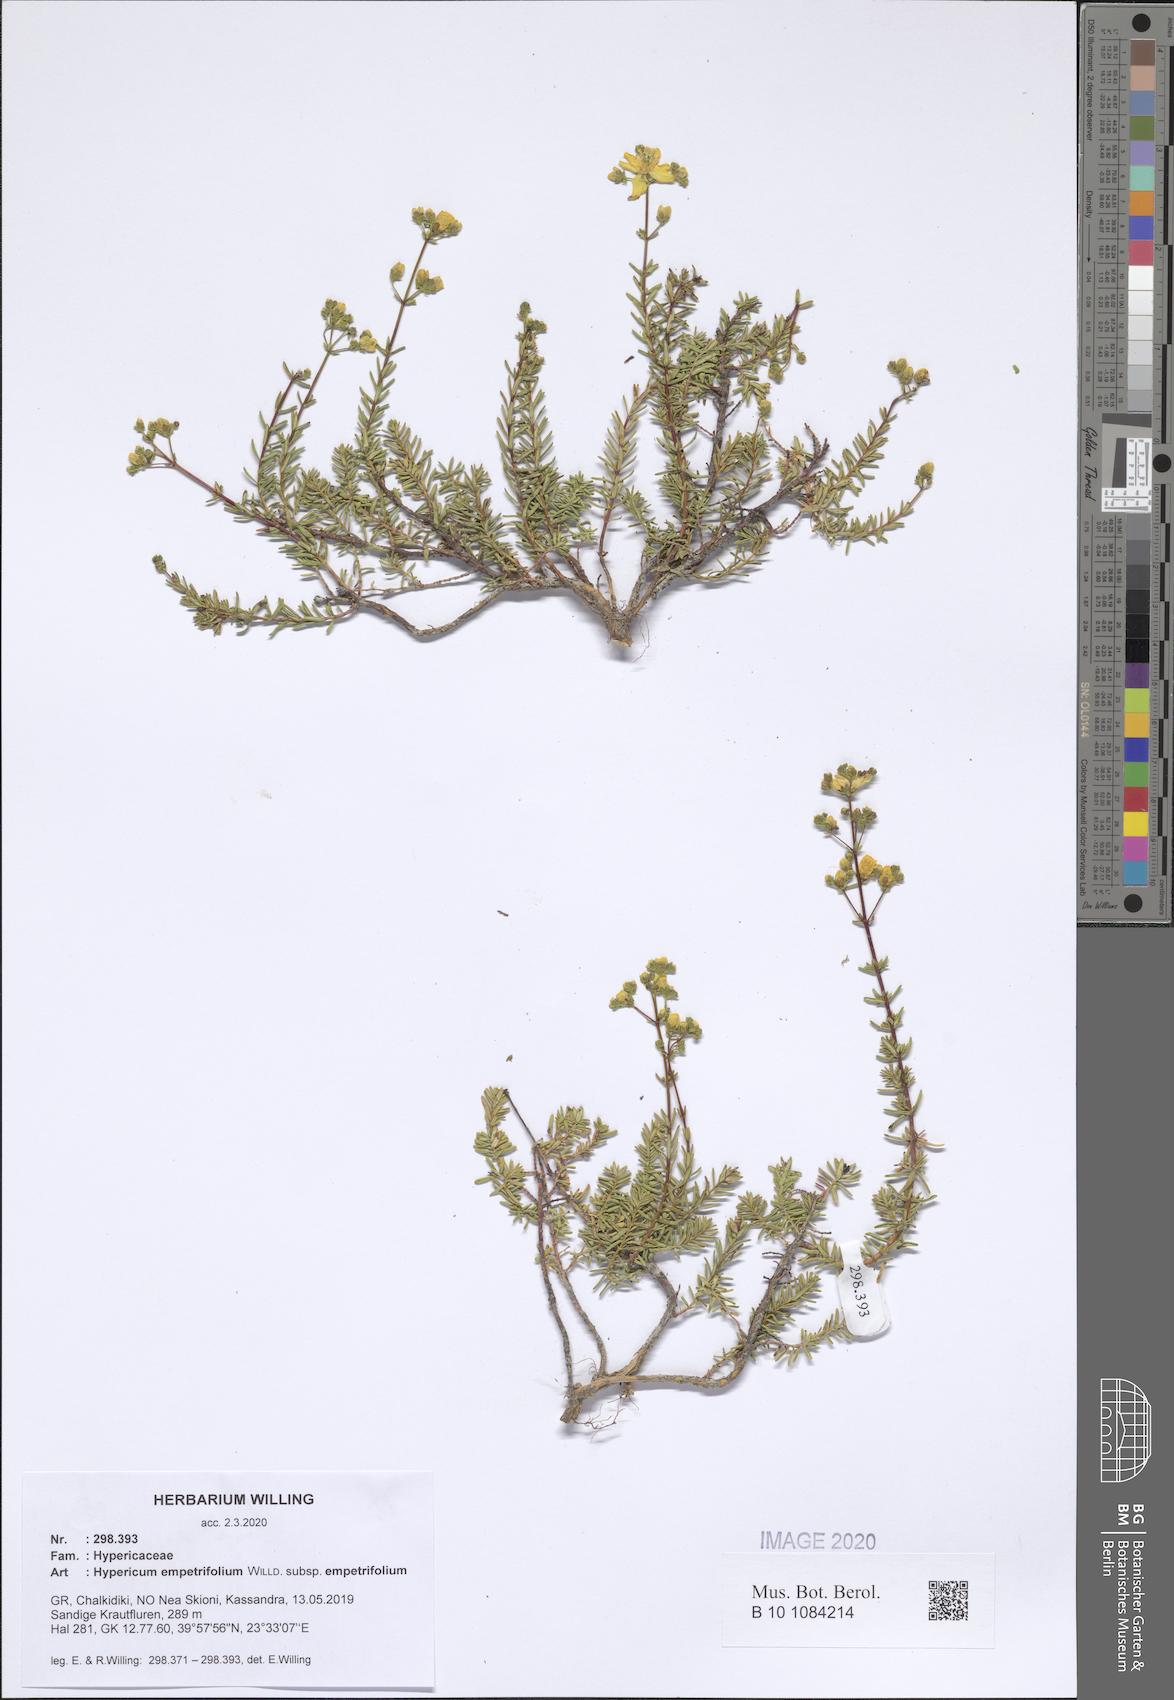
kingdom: Plantae
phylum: Tracheophyta
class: Magnoliopsida
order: Malpighiales
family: Hypericaceae
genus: Hypericum
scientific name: Hypericum empetrifolium
